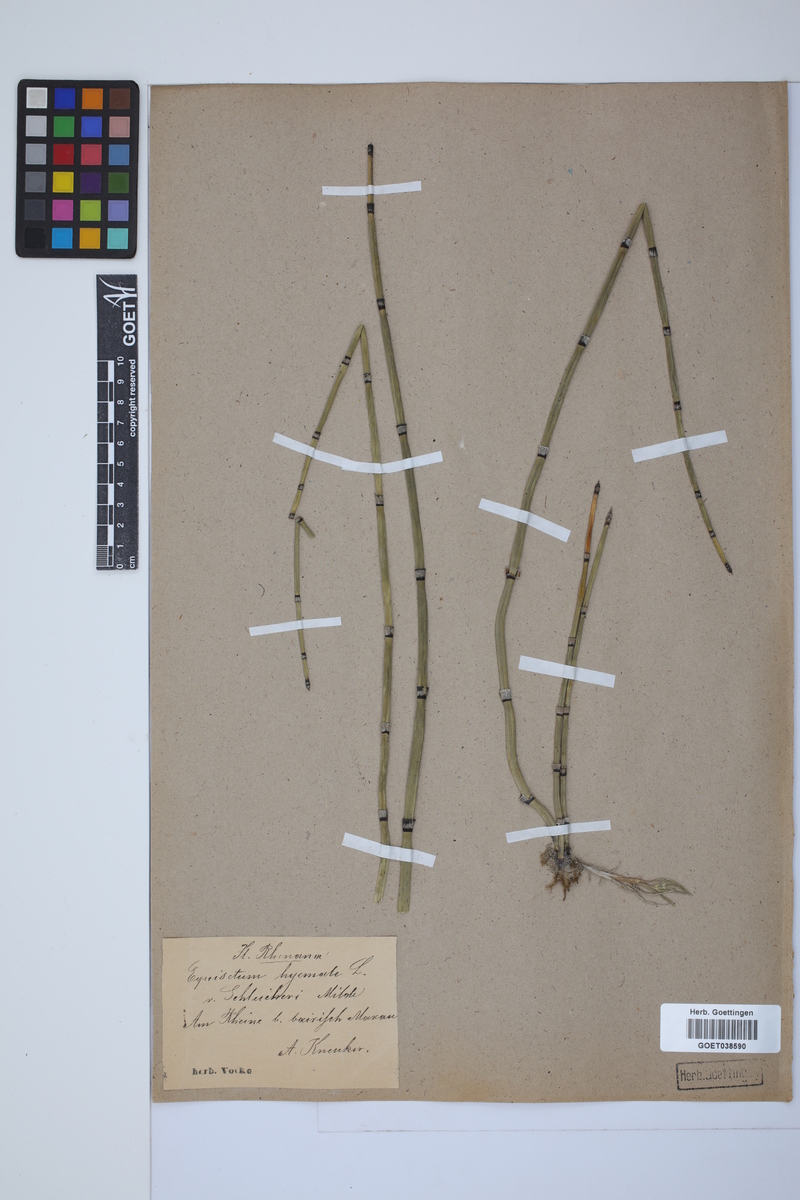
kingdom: Plantae
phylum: Tracheophyta
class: Polypodiopsida
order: Equisetales
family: Equisetaceae
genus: Equisetum
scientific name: Equisetum hyemale
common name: Rough horsetail
